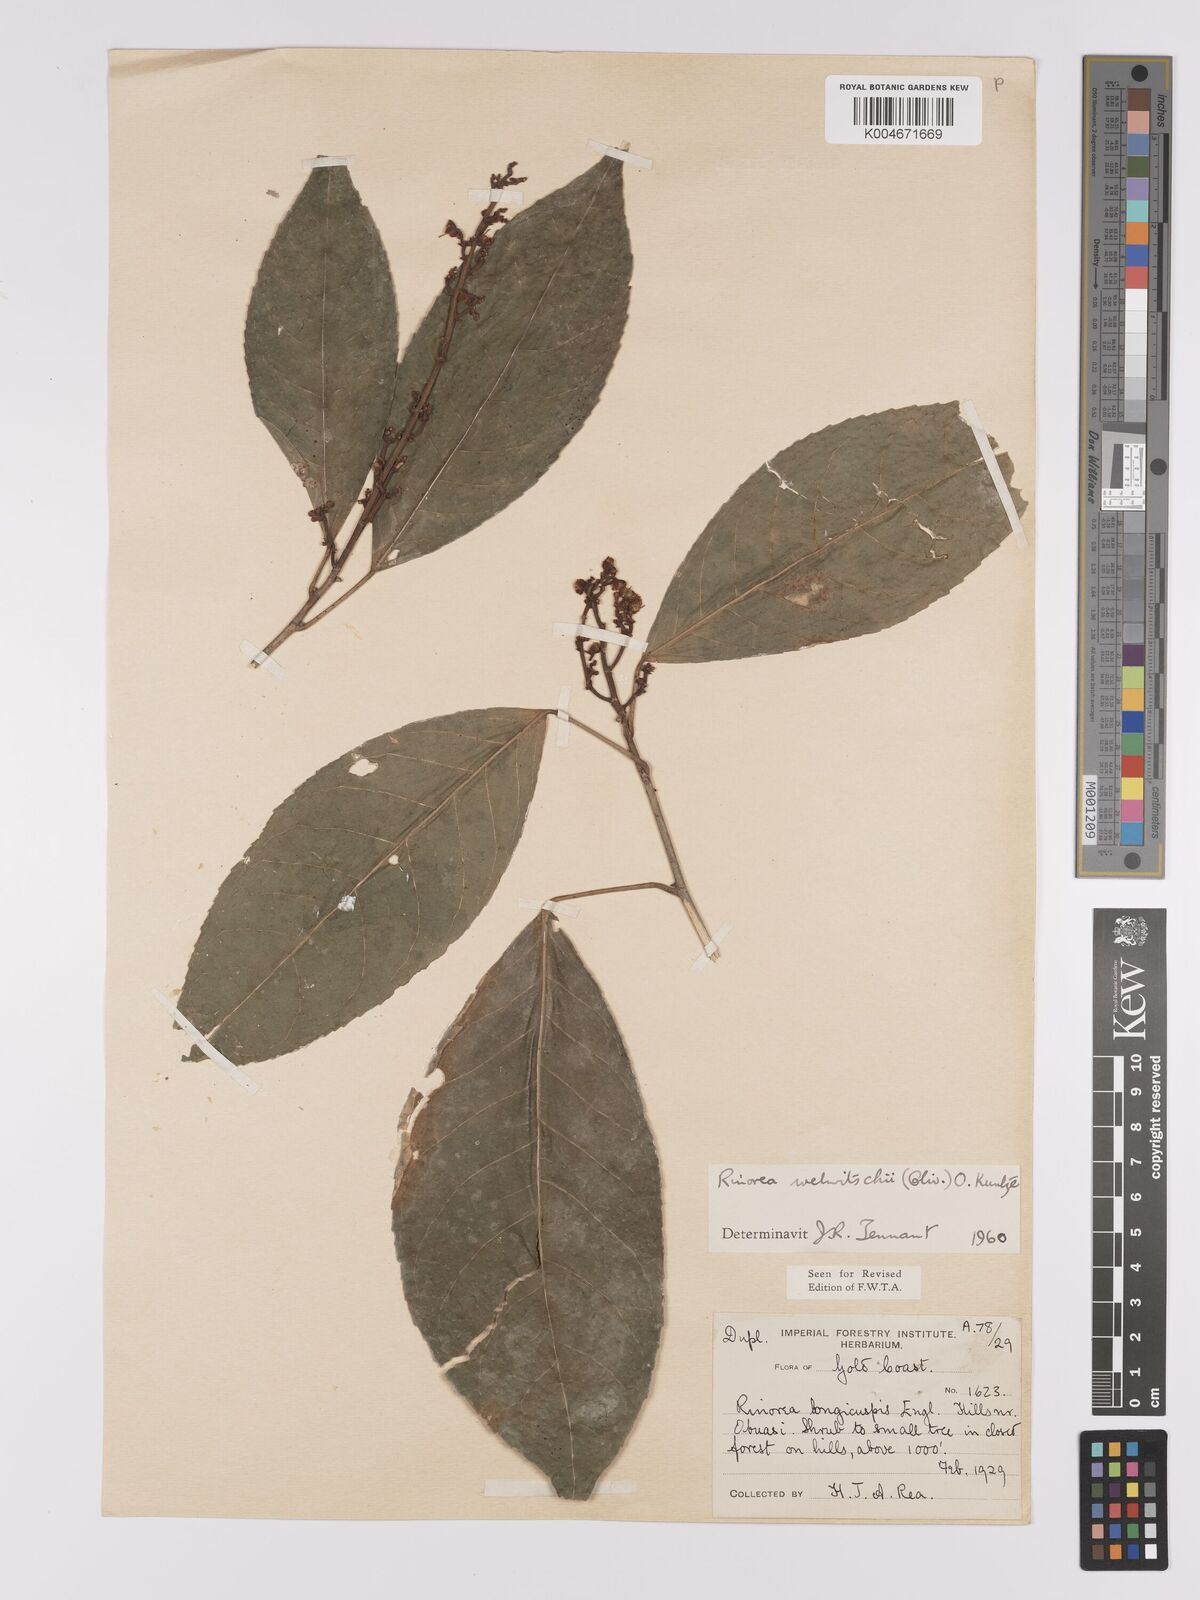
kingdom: Plantae
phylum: Tracheophyta
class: Magnoliopsida
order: Malpighiales
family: Violaceae
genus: Rinorea
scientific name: Rinorea welwitschii
